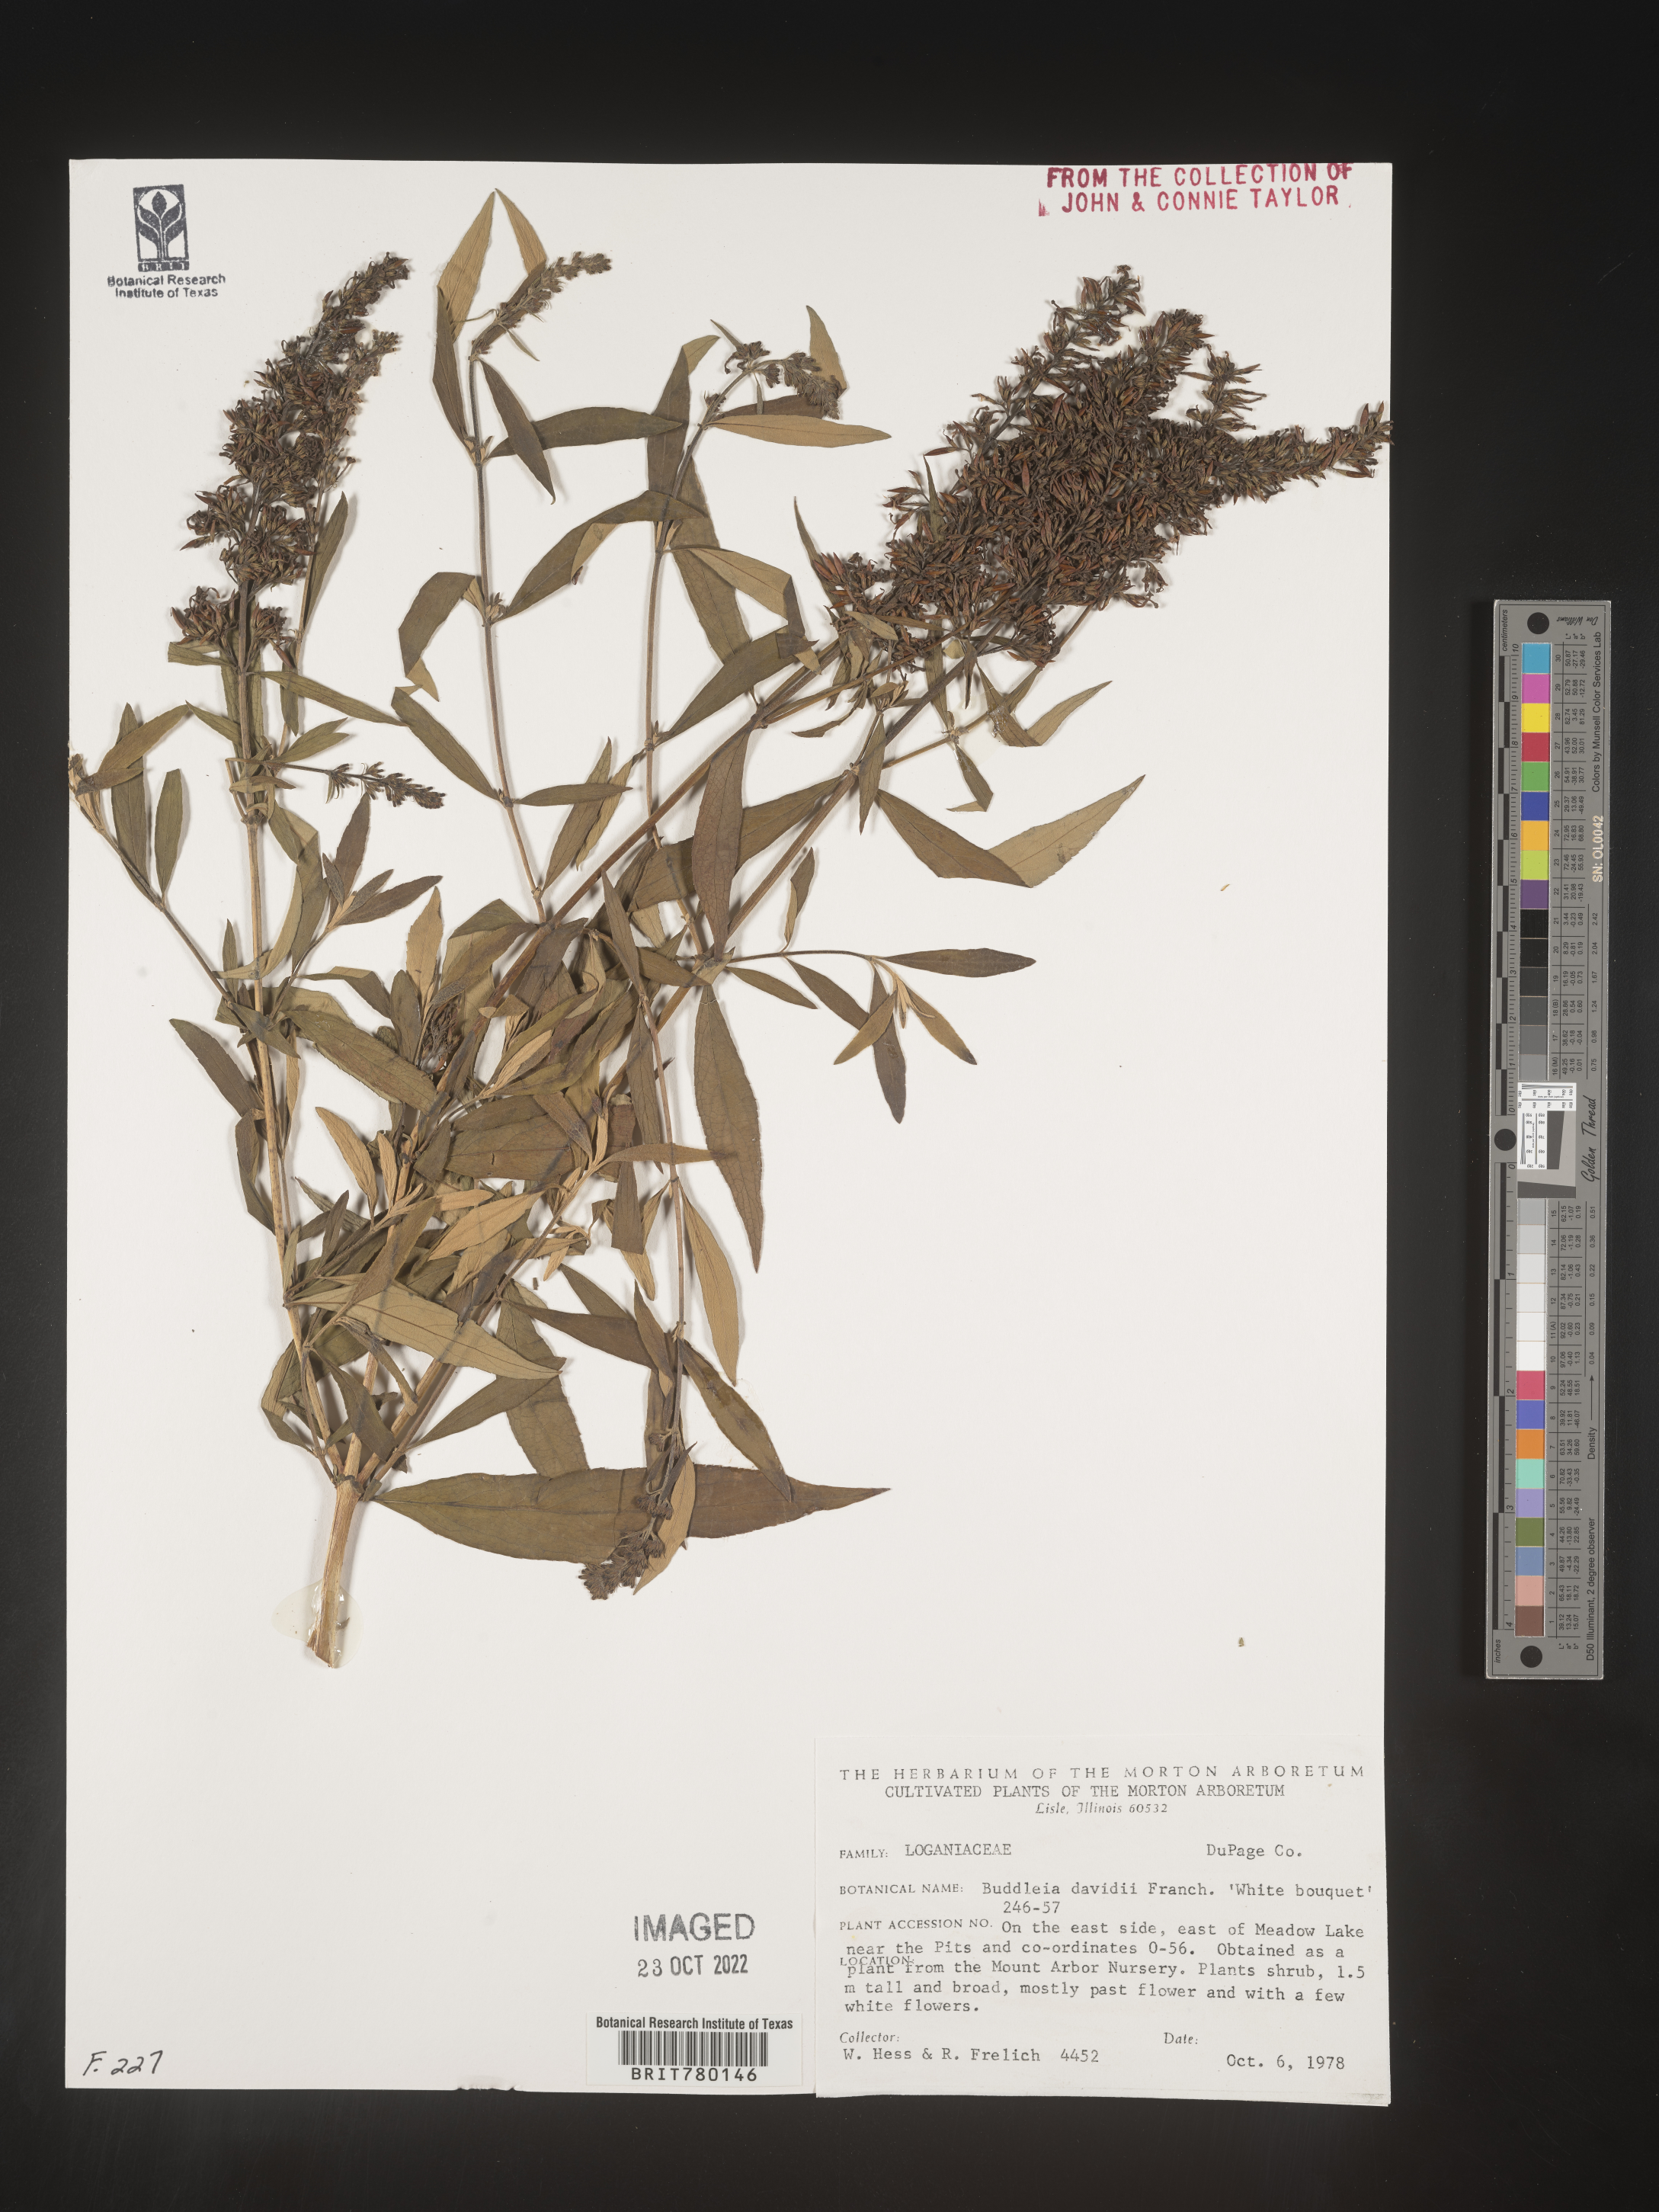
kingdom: Plantae
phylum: Tracheophyta
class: Magnoliopsida
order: Lamiales
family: Scrophulariaceae
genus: Buddleja
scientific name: Buddleja
